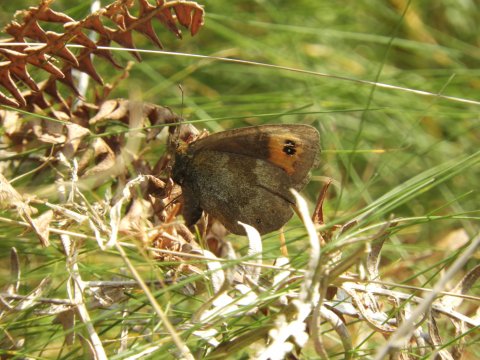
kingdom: Animalia
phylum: Arthropoda
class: Insecta
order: Lepidoptera
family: Nymphalidae
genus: Erebia
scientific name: Erebia aethiops
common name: Scotch Argus
